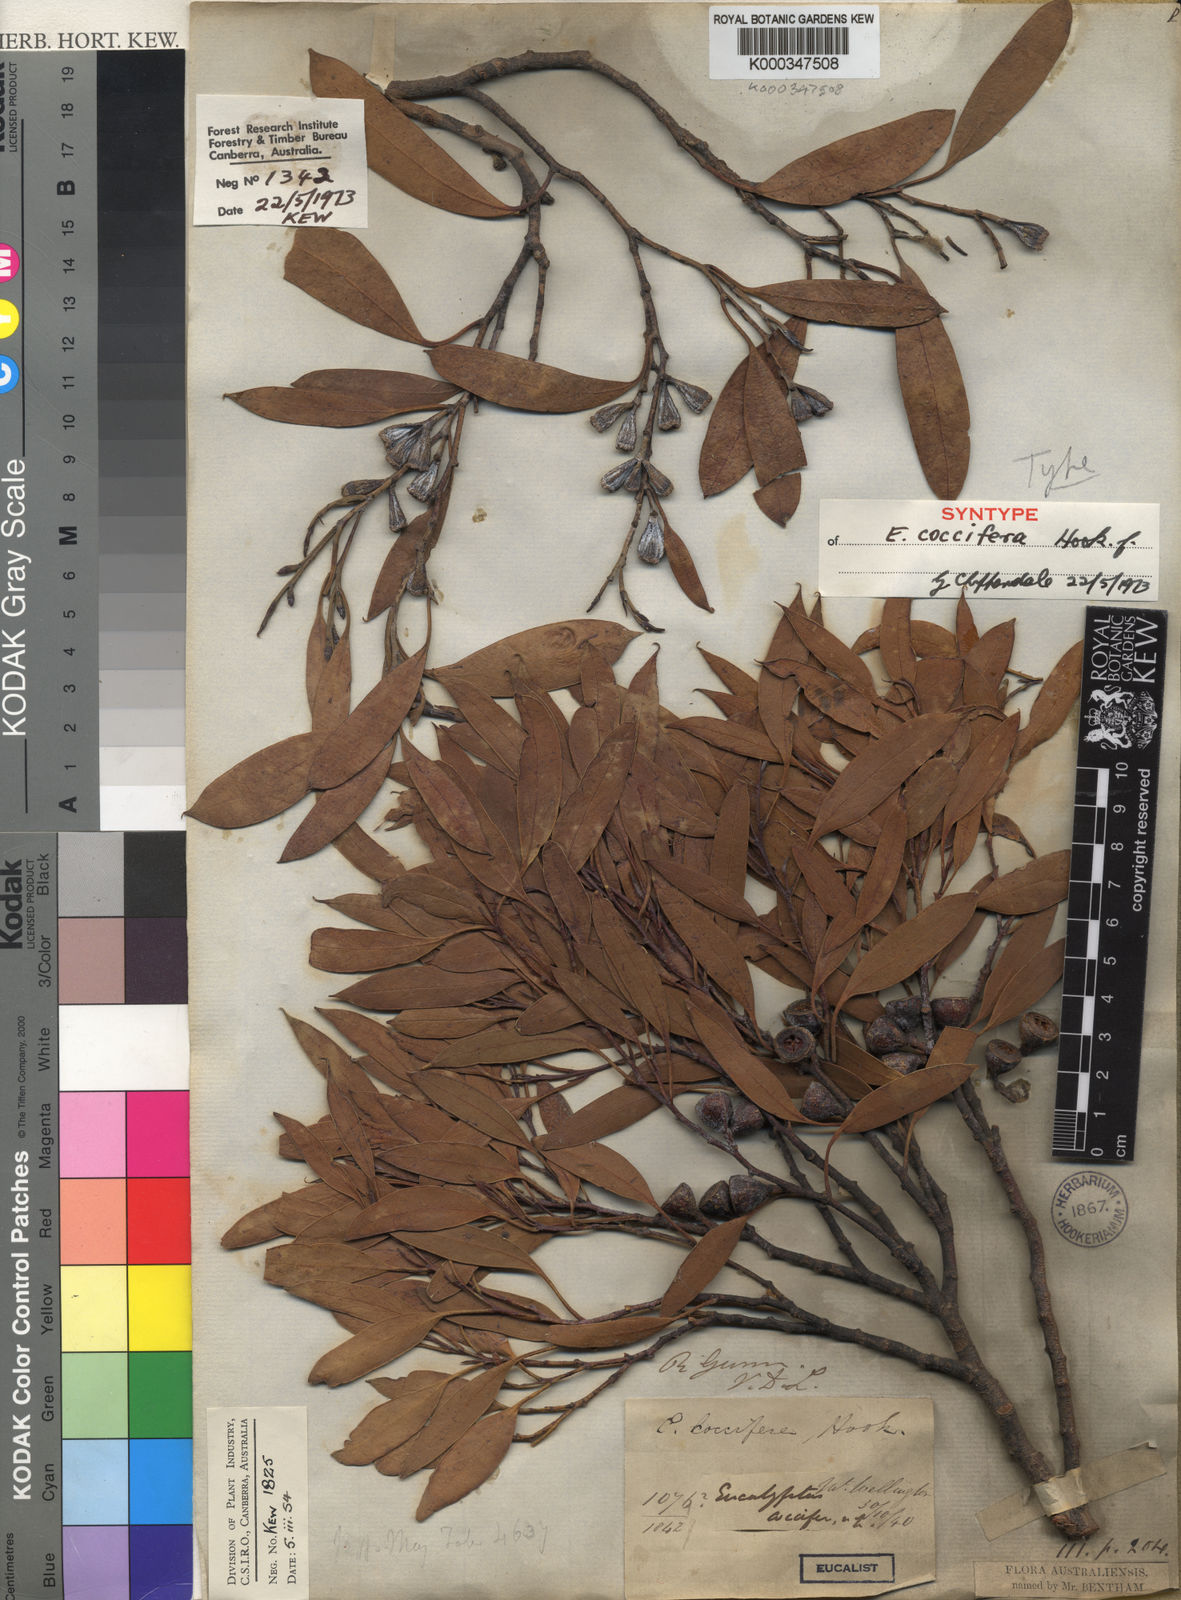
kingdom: Plantae
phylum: Tracheophyta
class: Magnoliopsida
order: Myrtales
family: Myrtaceae
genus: Eucalyptus
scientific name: Eucalyptus coccifera
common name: Tasmanian snow-gum
